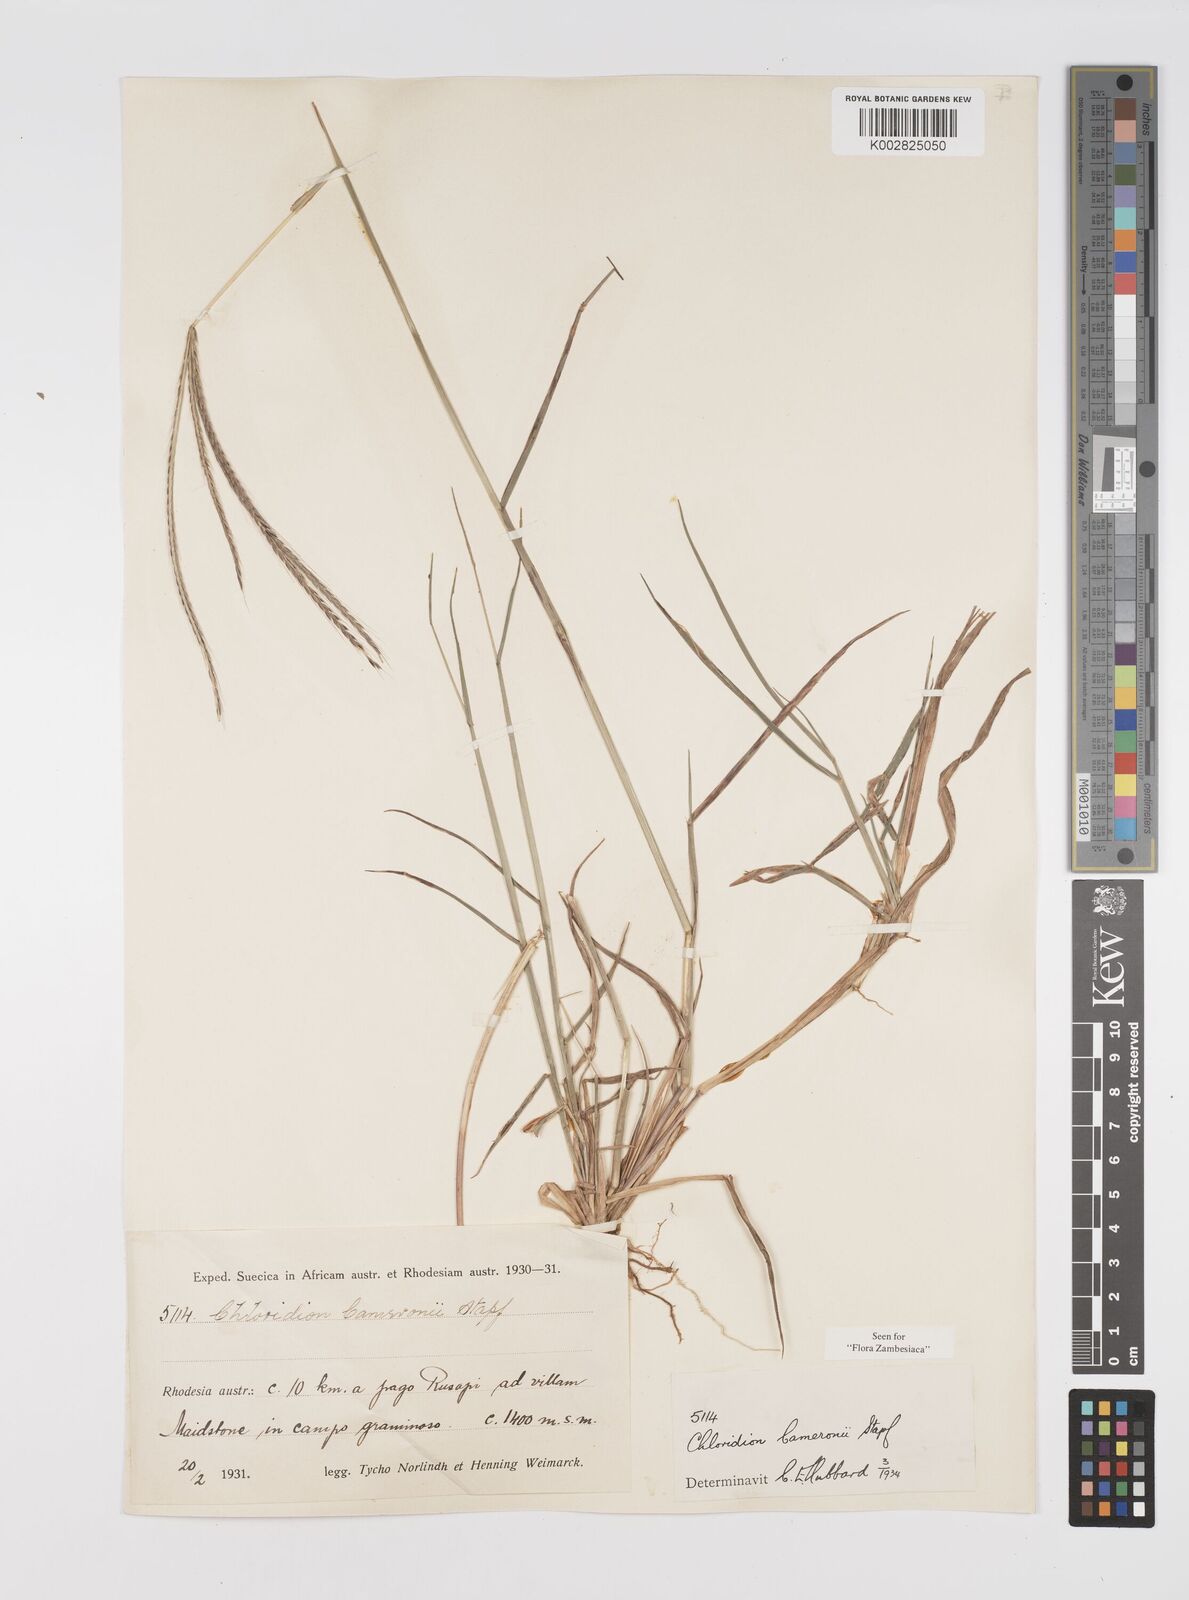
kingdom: Plantae
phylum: Tracheophyta
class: Liliopsida
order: Poales
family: Poaceae
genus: Stereochlaena
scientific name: Stereochlaena cameronii
